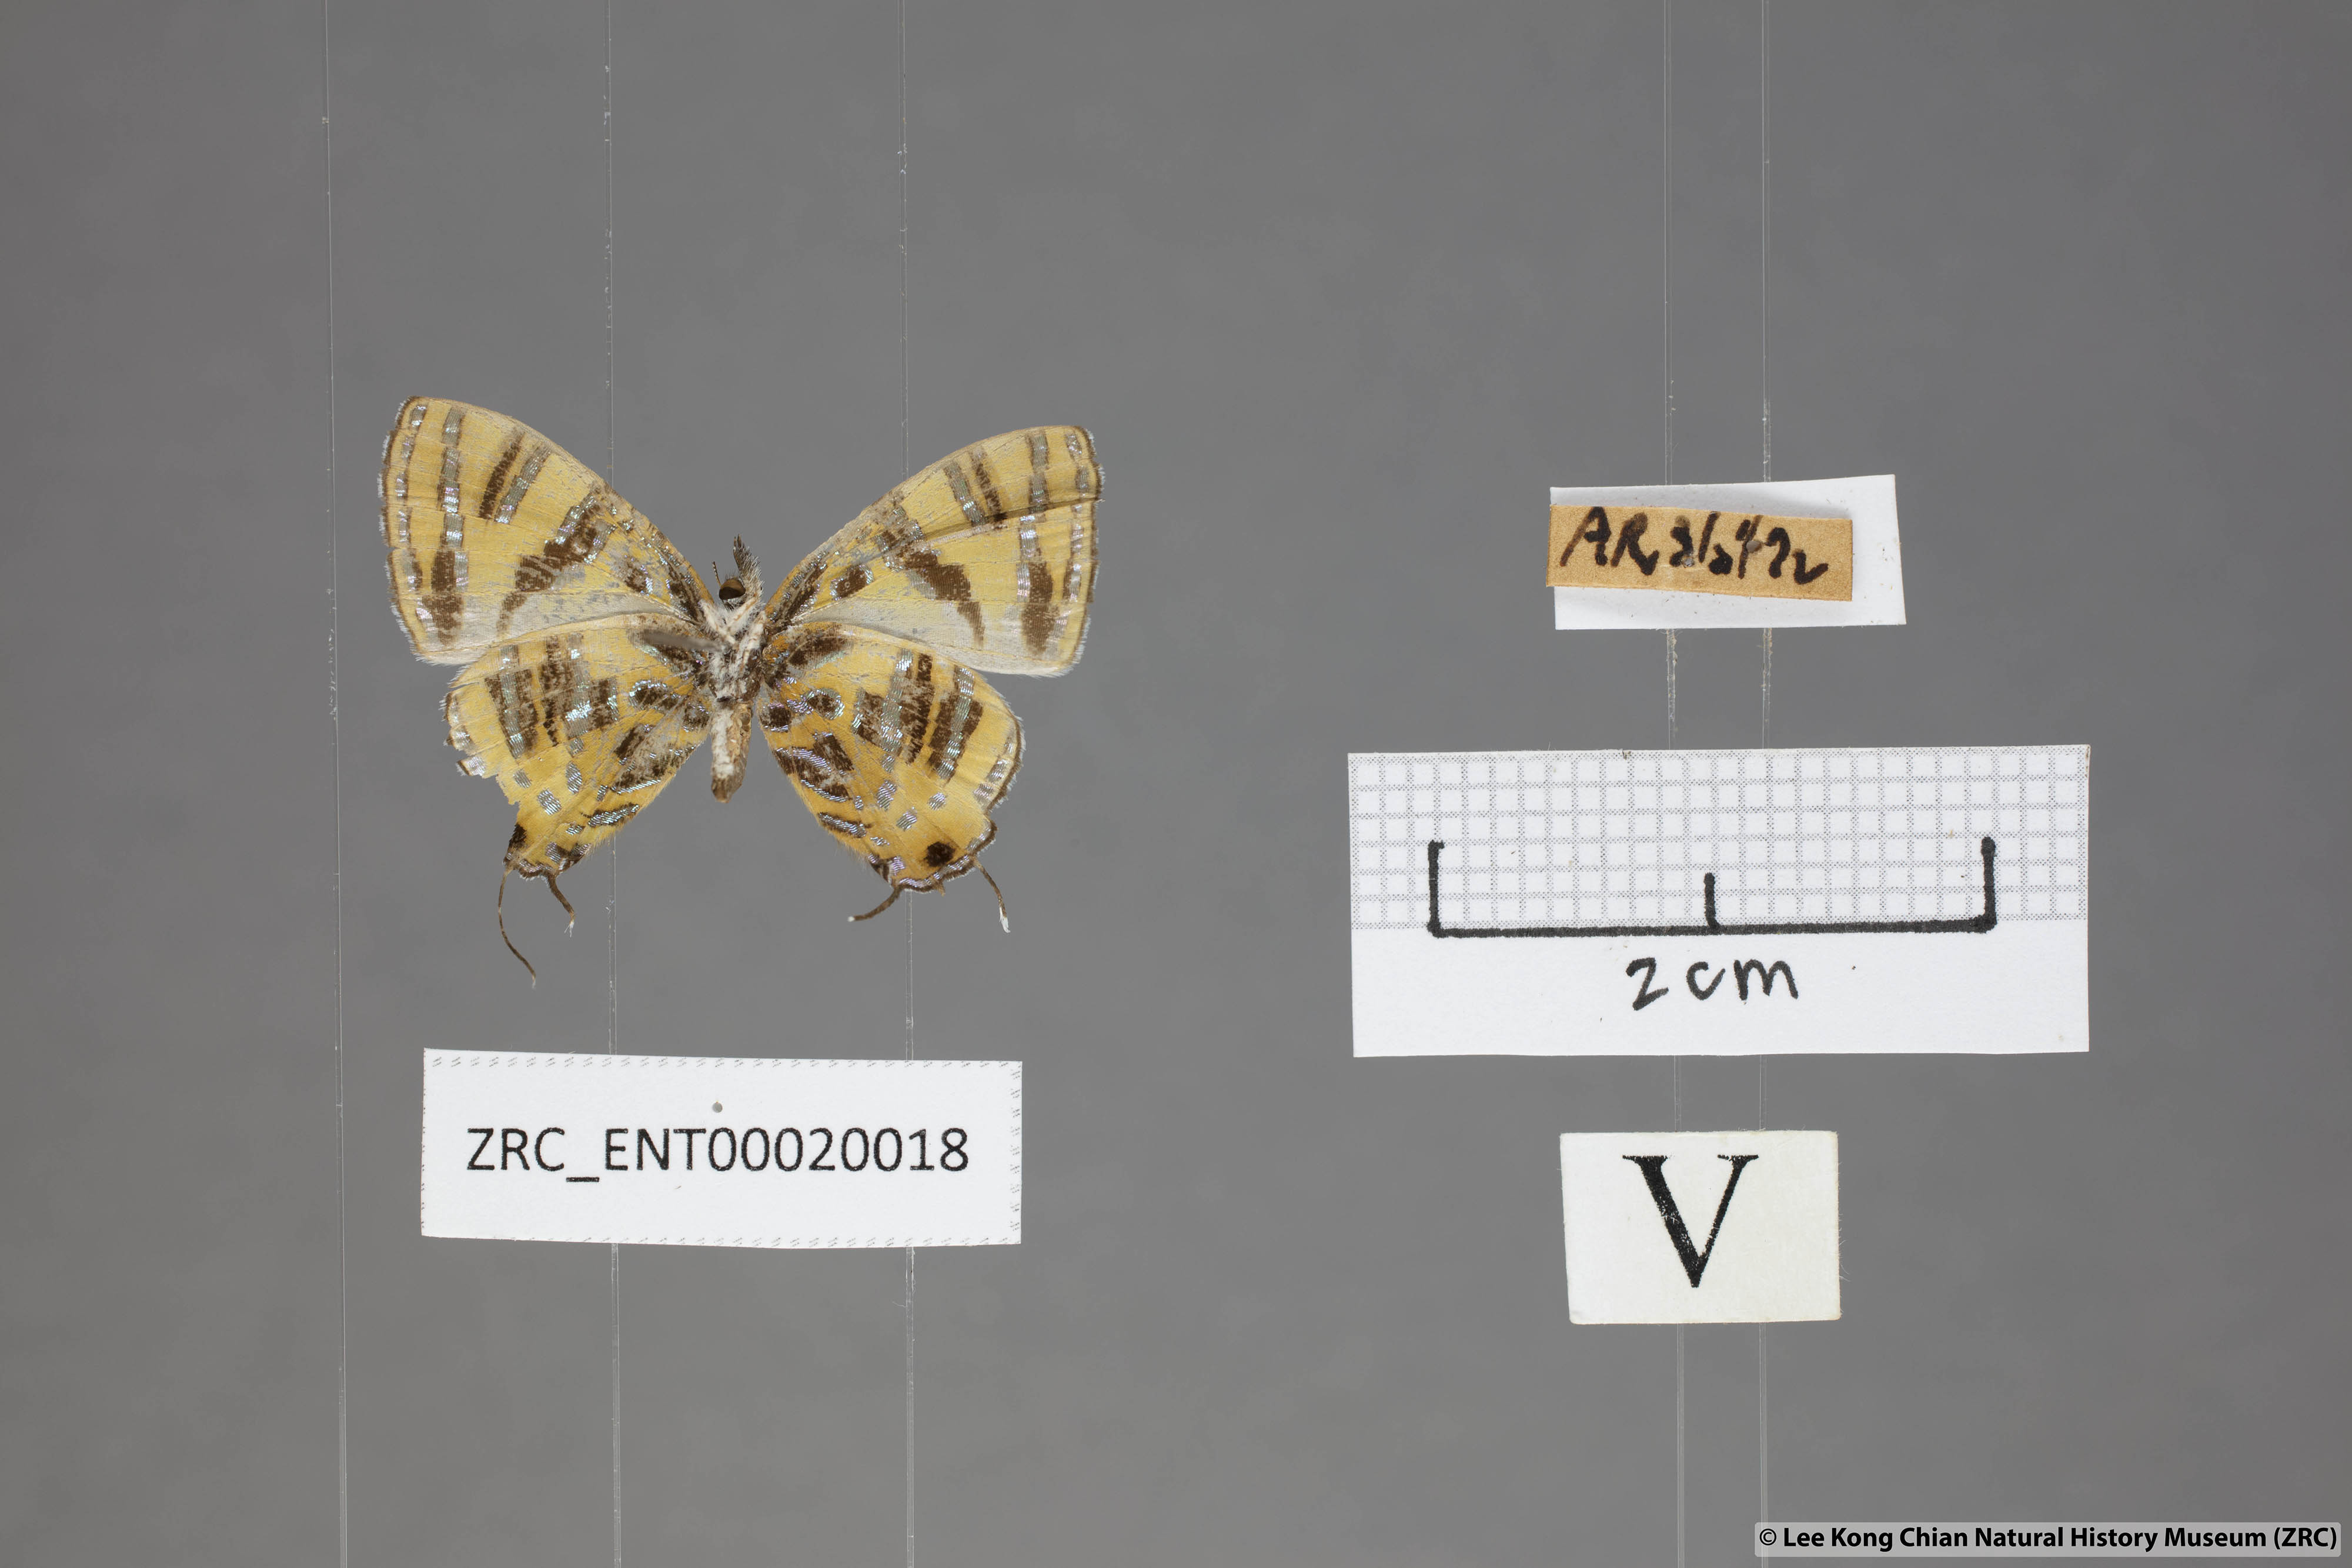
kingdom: Animalia
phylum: Arthropoda
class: Insecta
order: Lepidoptera
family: Lycaenidae
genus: Catapaecilma
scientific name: Catapaecilma subochrea
